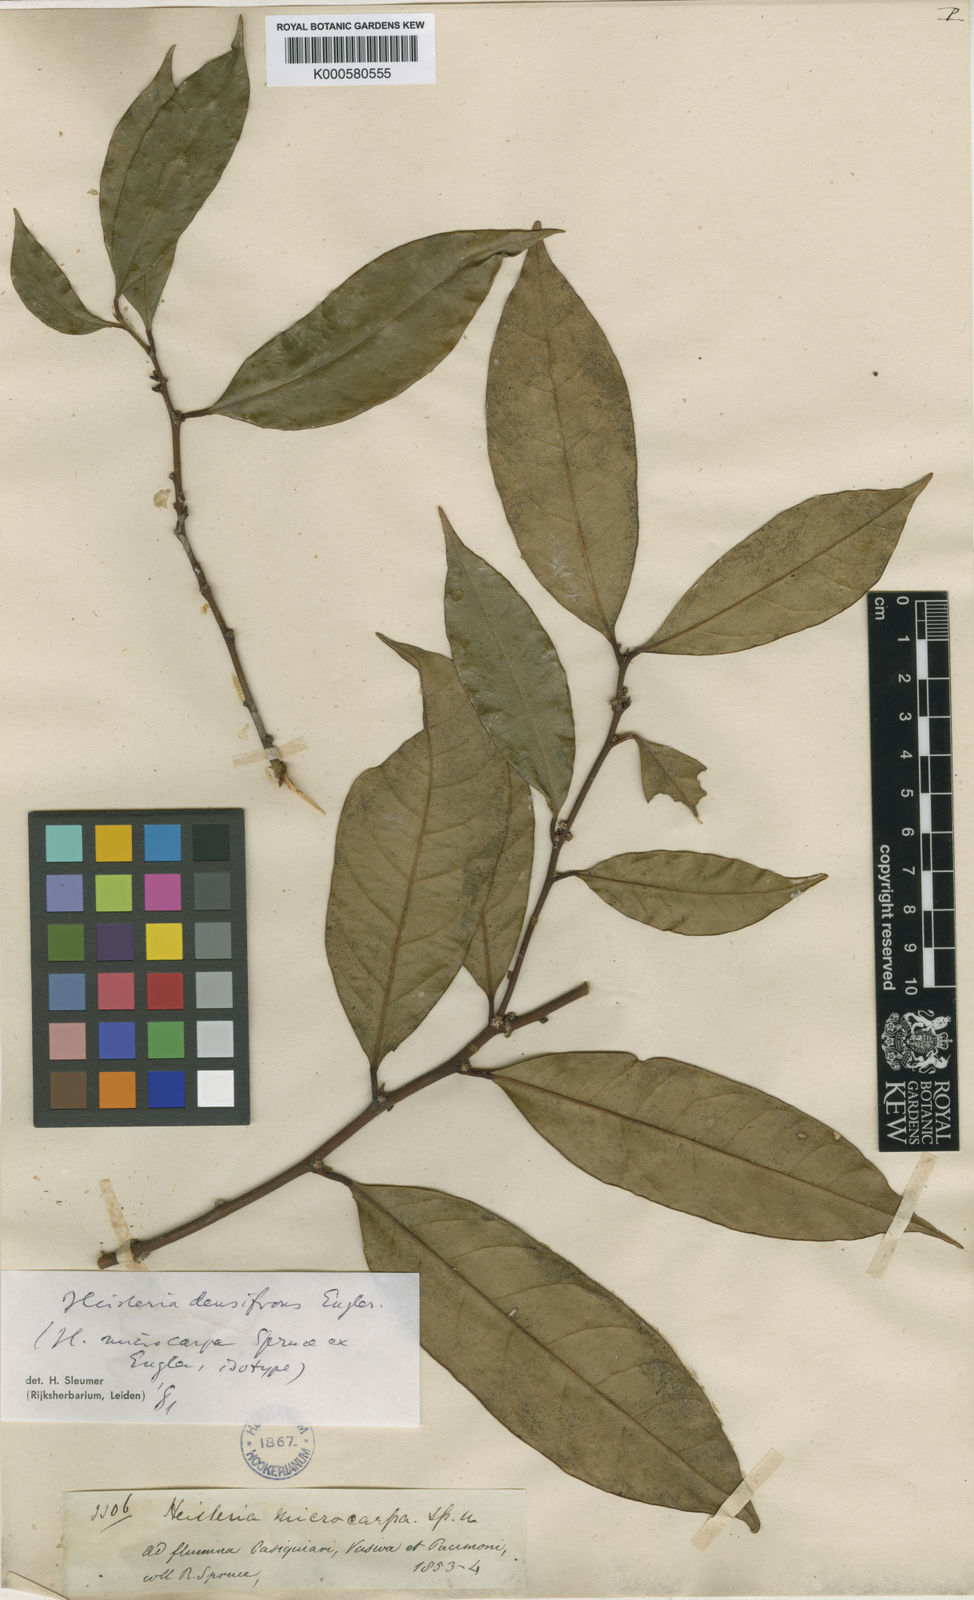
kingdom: Plantae
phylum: Tracheophyta
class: Magnoliopsida
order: Santalales
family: Erythropalaceae
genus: Heisteria
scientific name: Heisteria densifrons
